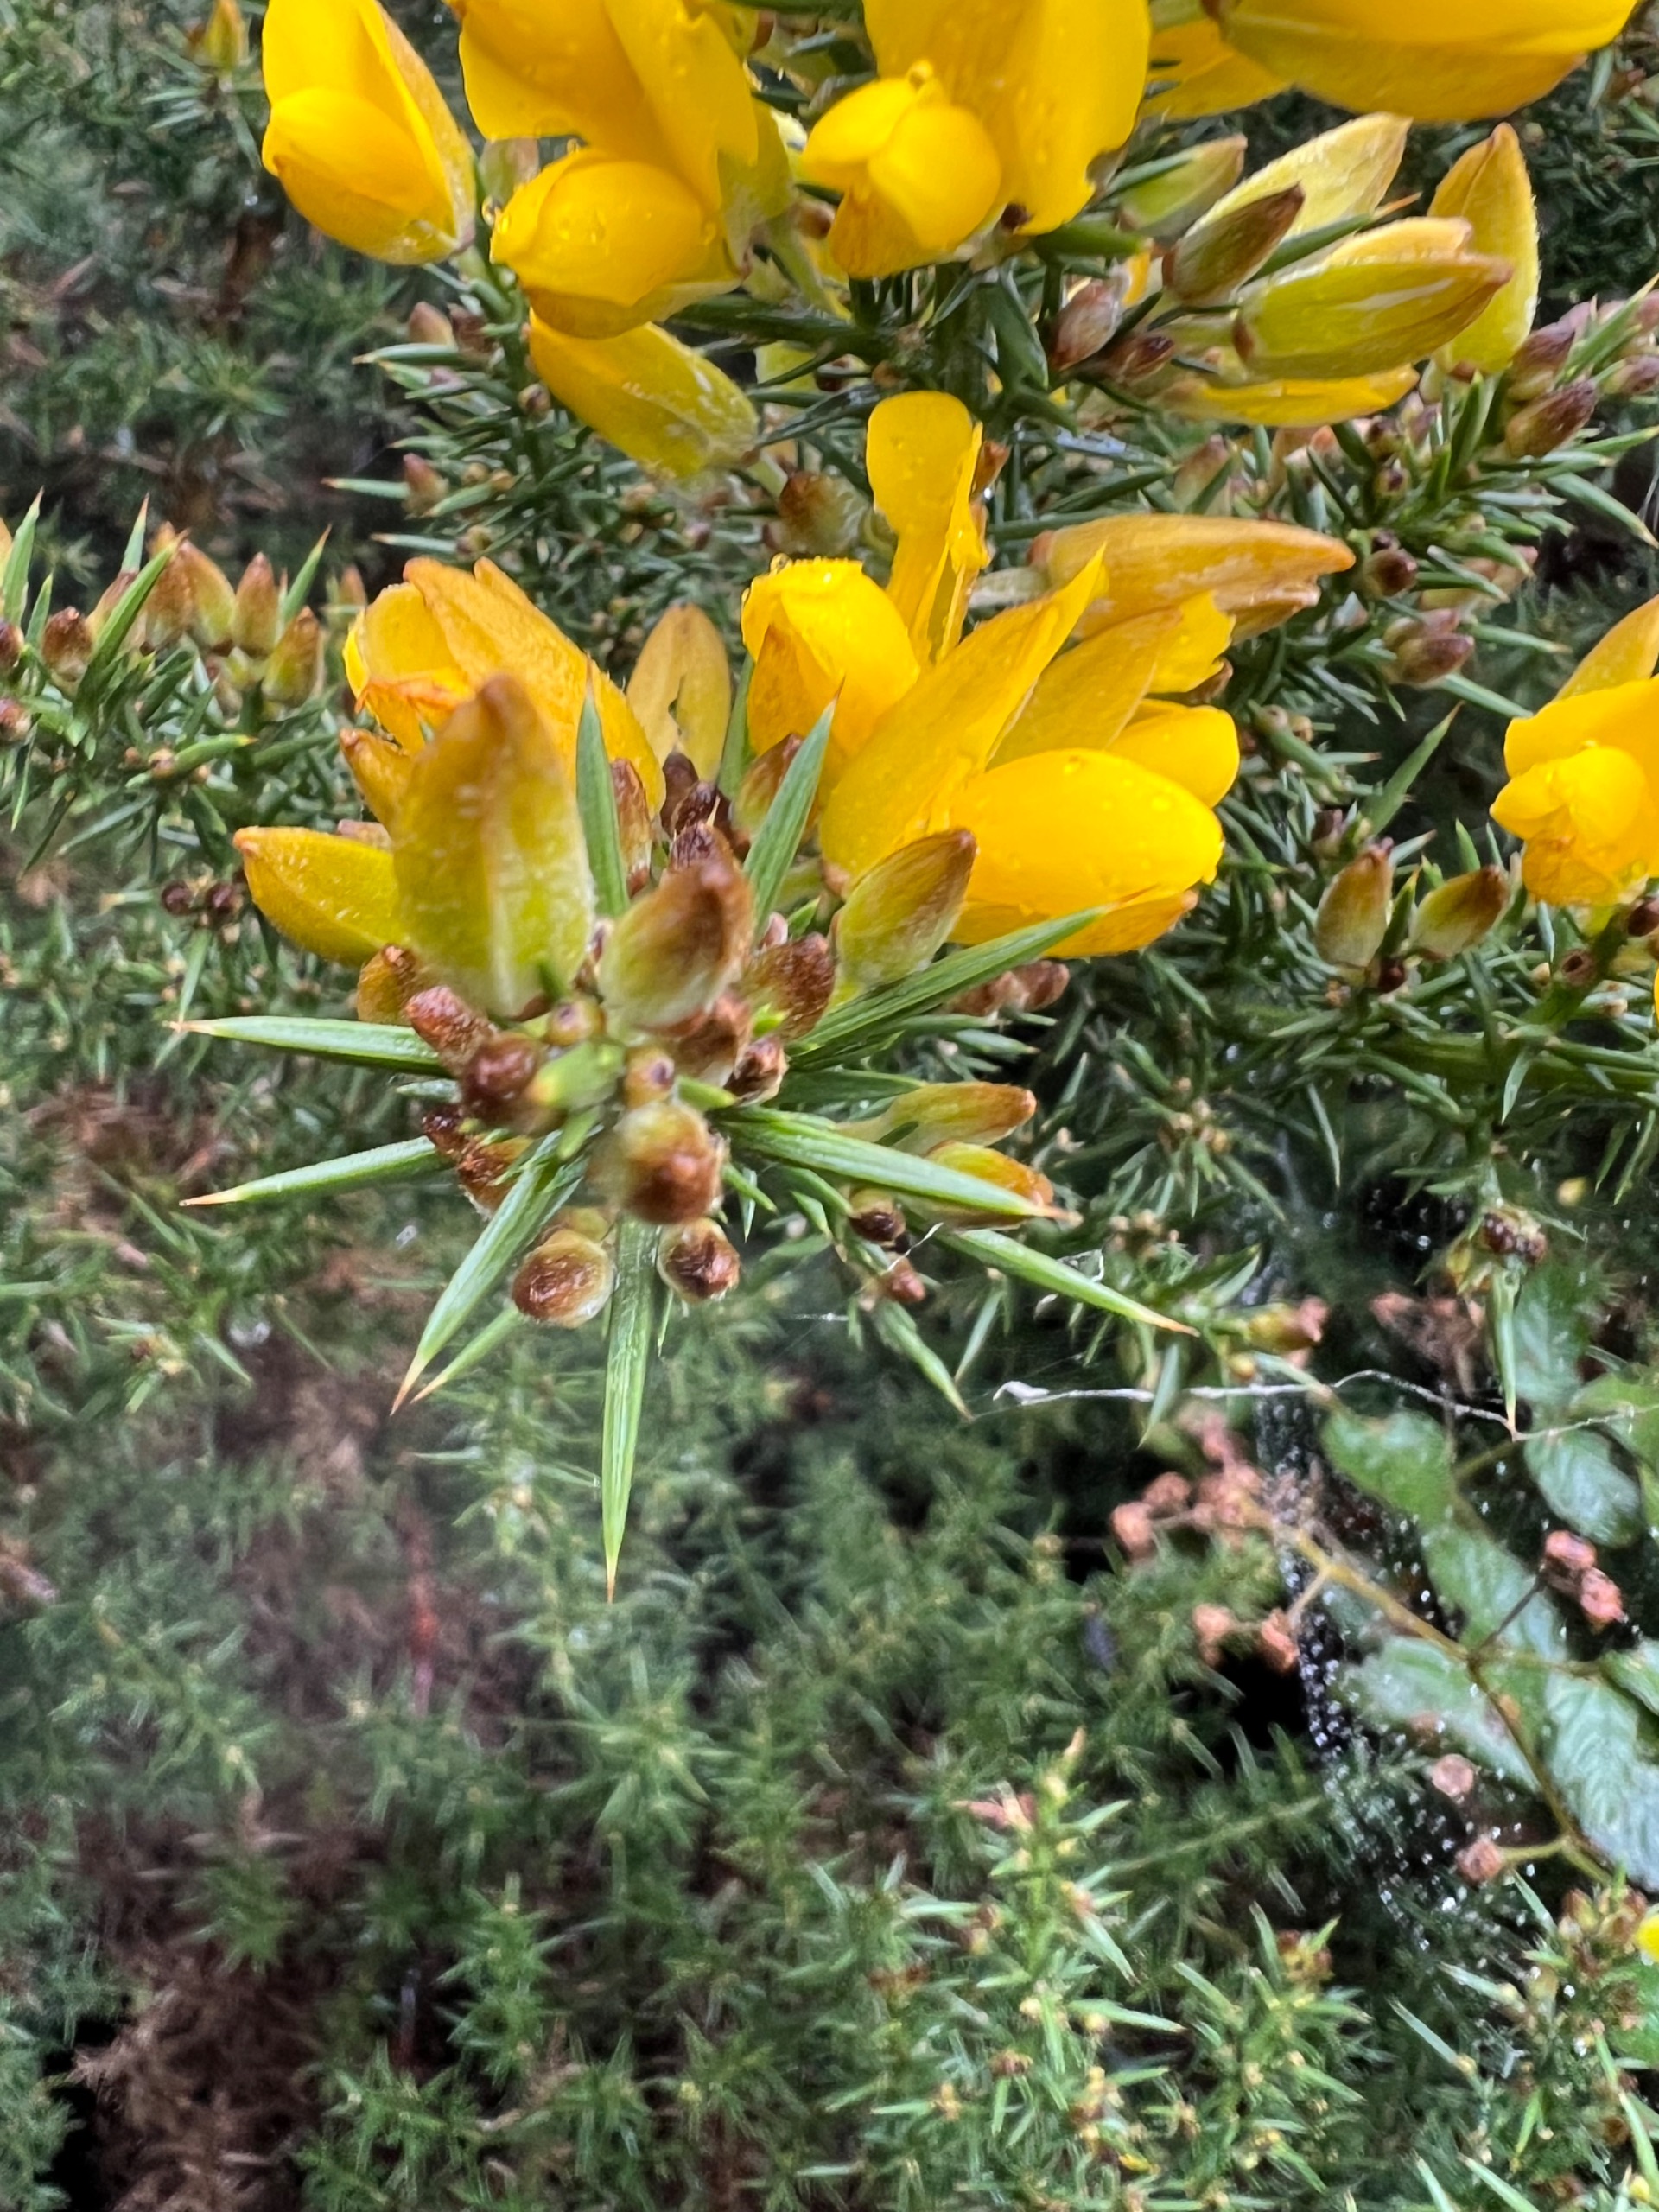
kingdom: Plantae
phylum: Tracheophyta
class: Magnoliopsida
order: Fabales
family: Fabaceae
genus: Ulex
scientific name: Ulex europaeus
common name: Tornblad
